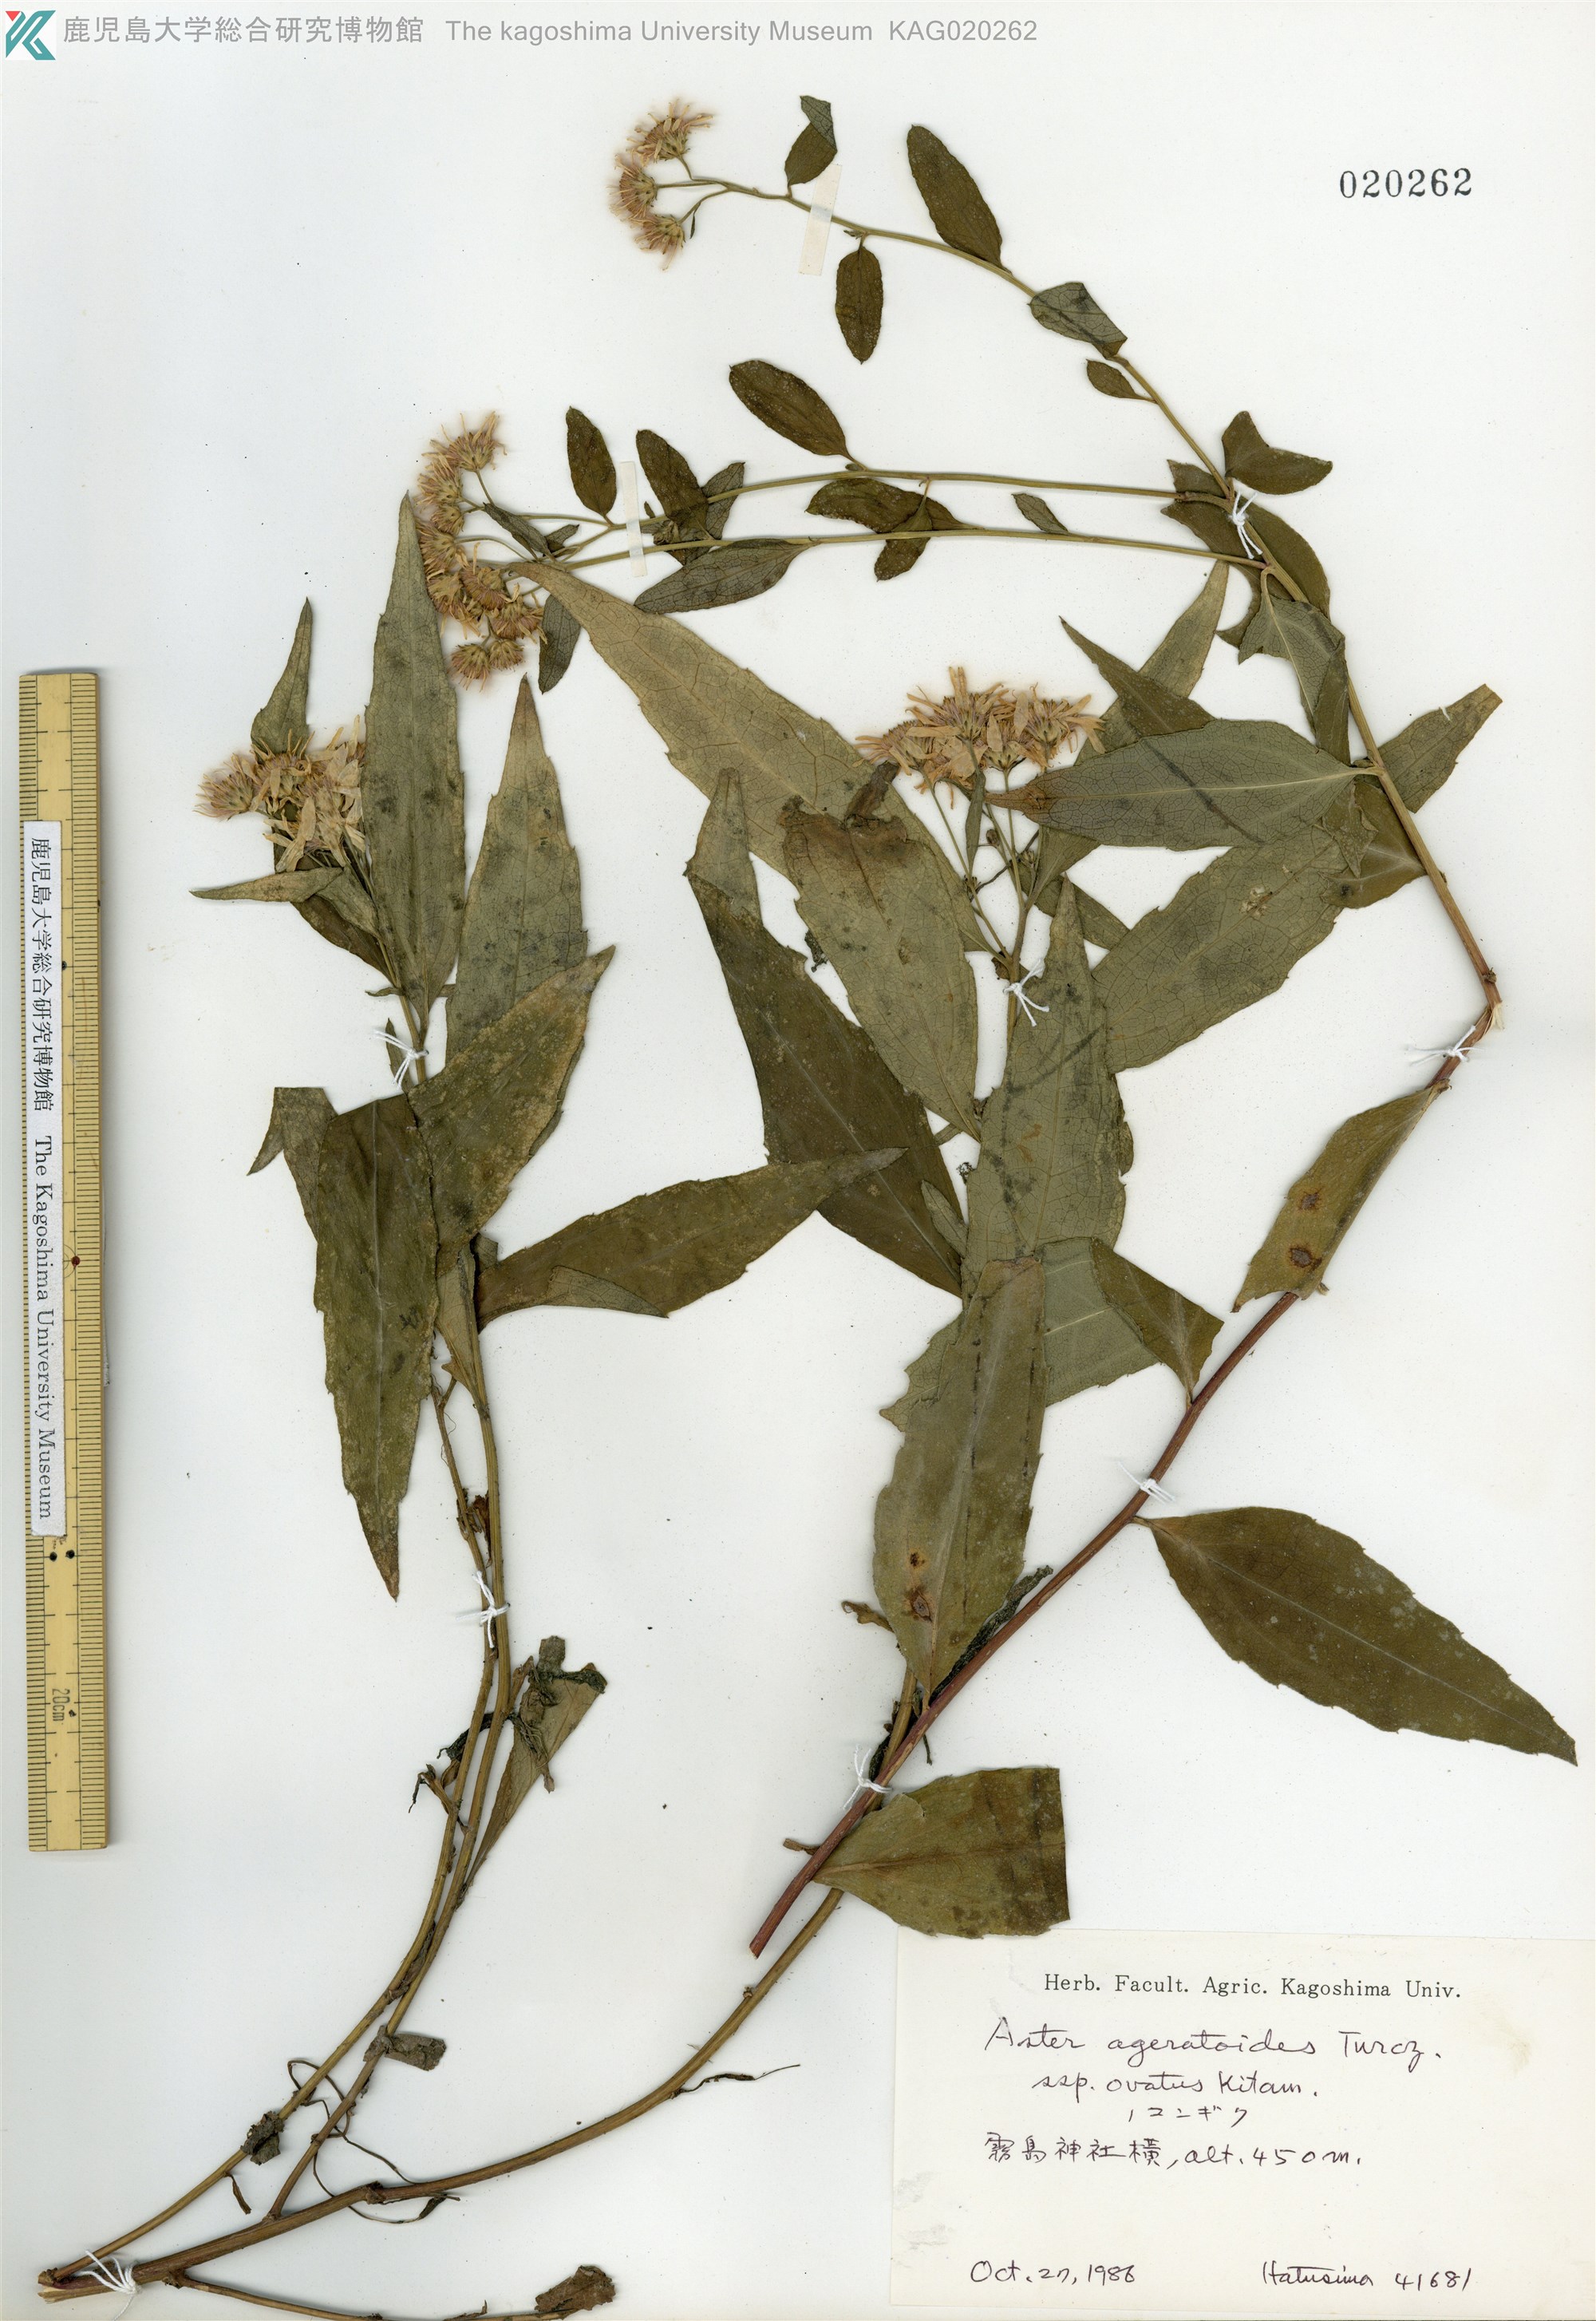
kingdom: Plantae
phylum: Tracheophyta
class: Magnoliopsida
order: Asterales
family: Asteraceae
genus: Aster
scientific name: Aster microcephalus
